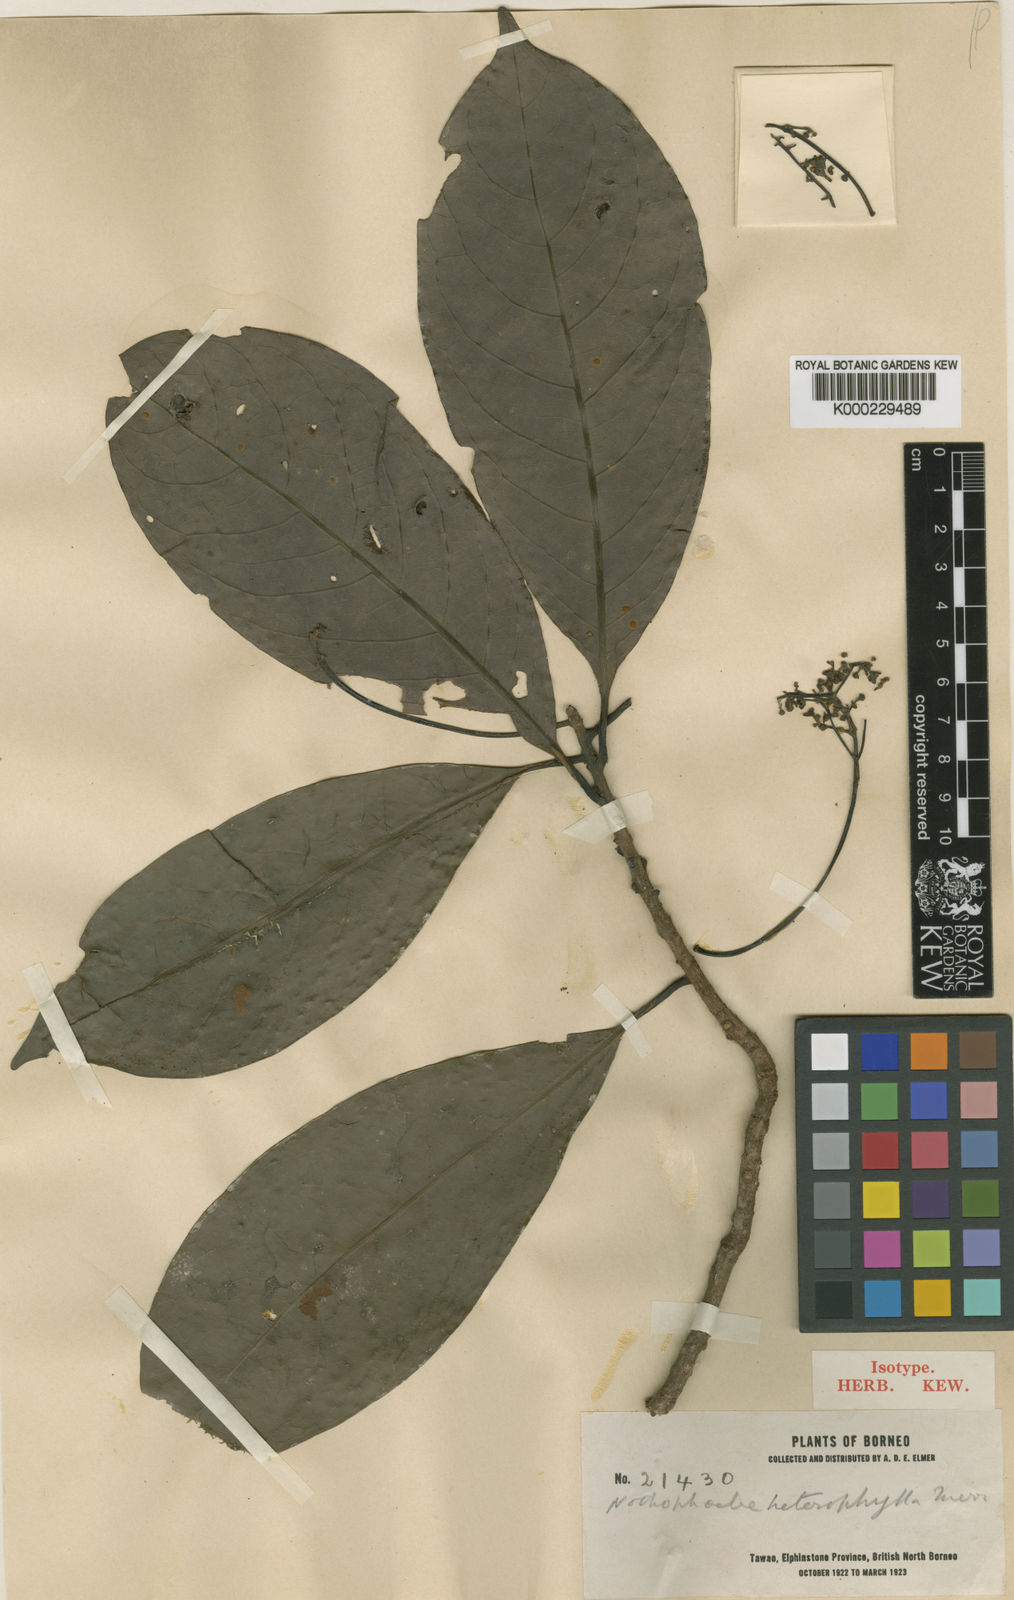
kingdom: Plantae
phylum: Tracheophyta
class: Magnoliopsida
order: Laurales
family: Lauraceae
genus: Nothaphoebe
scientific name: Nothaphoebe heterophylla
